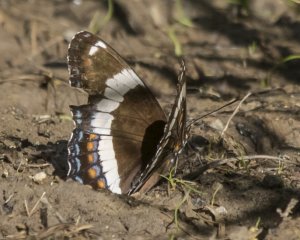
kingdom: Animalia
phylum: Arthropoda
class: Insecta
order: Lepidoptera
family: Nymphalidae
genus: Limenitis
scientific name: Limenitis arthemis
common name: Red-spotted Admiral
